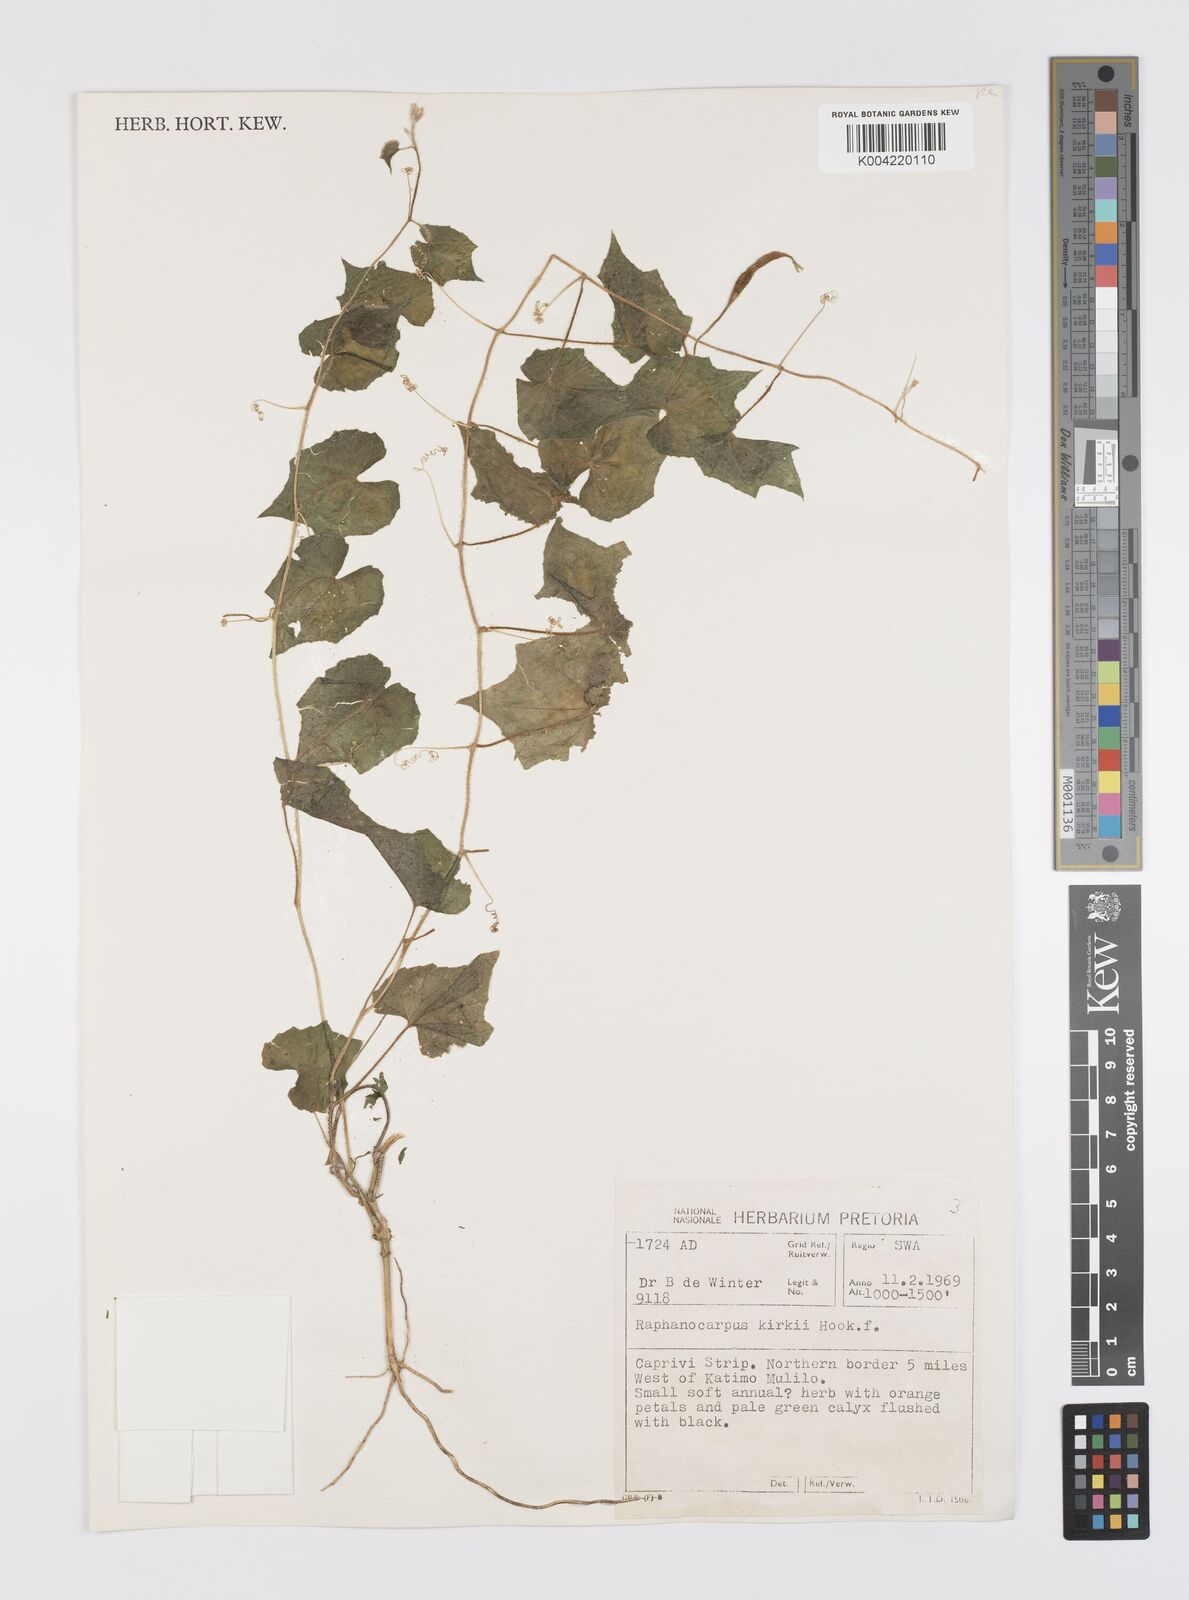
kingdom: Plantae
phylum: Tracheophyta
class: Magnoliopsida
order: Cucurbitales
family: Cucurbitaceae
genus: Momordica
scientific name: Momordica kirkii
